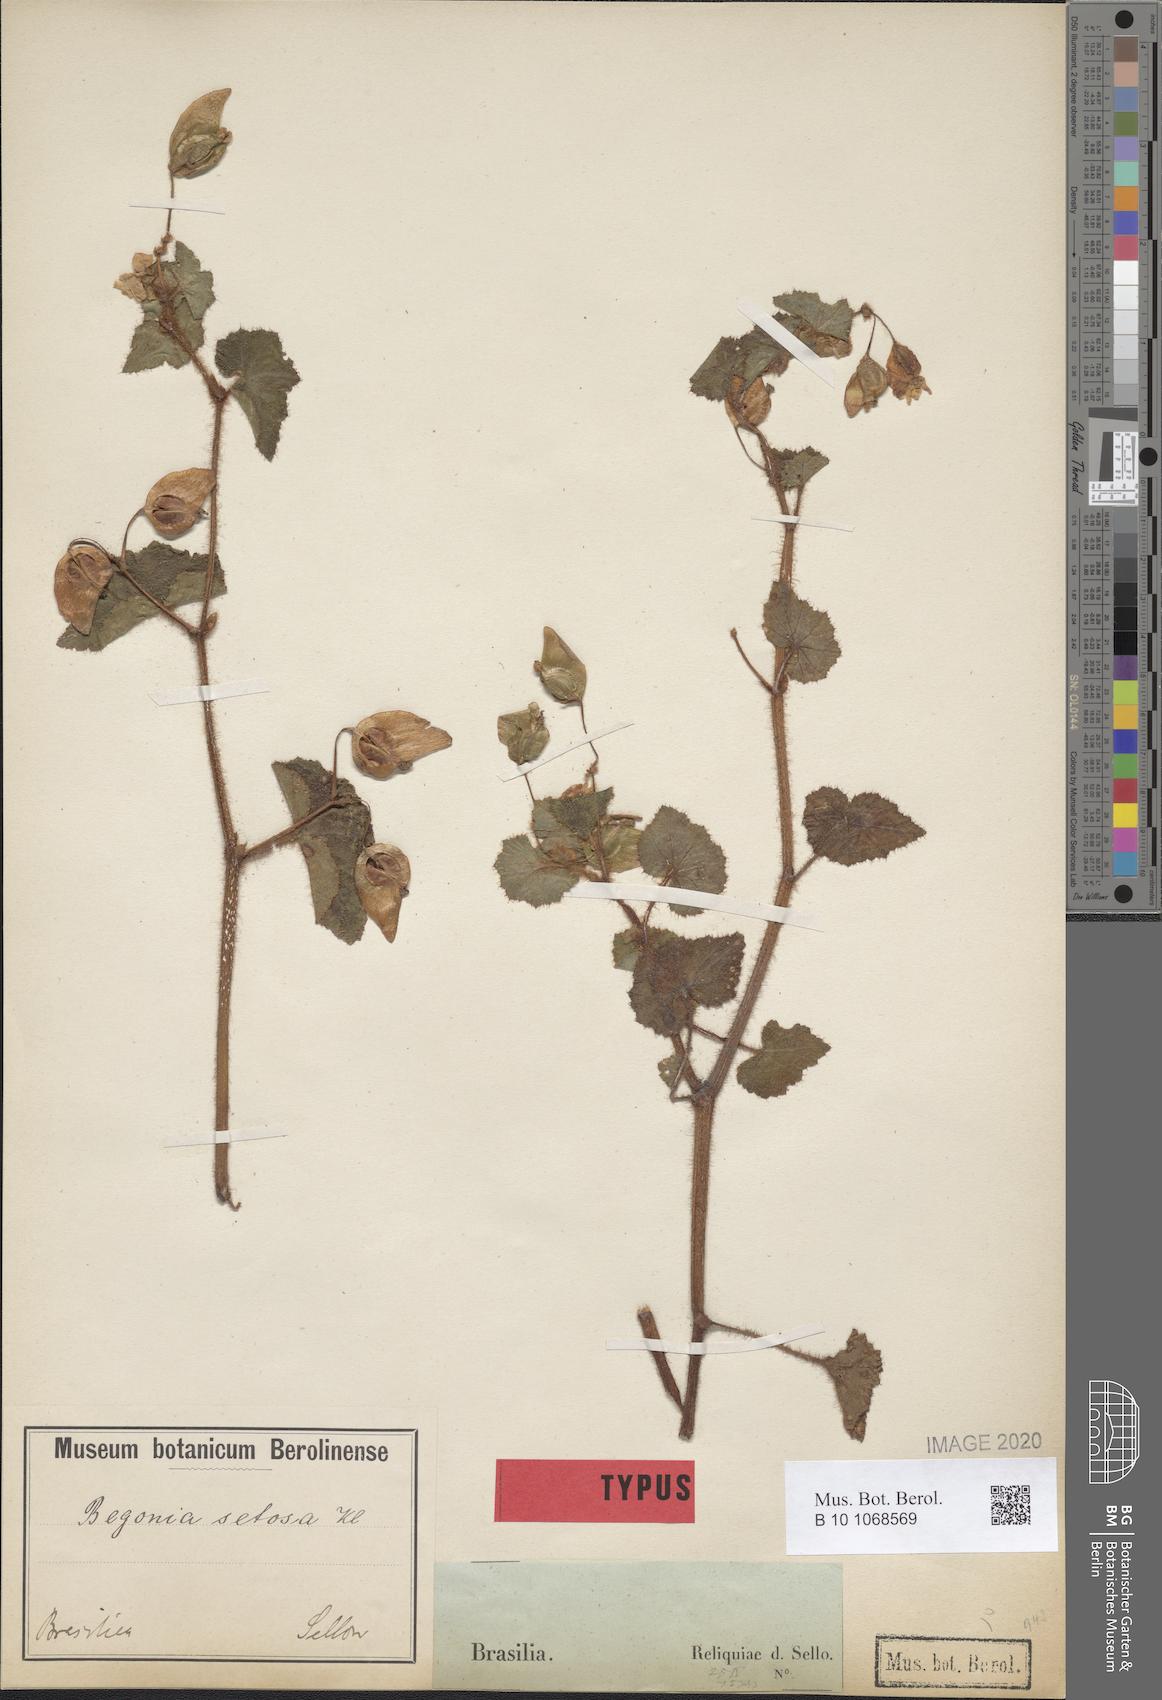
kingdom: Plantae
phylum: Tracheophyta
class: Magnoliopsida
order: Cucurbitales
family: Begoniaceae
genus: Begonia
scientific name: Begonia fischeri
